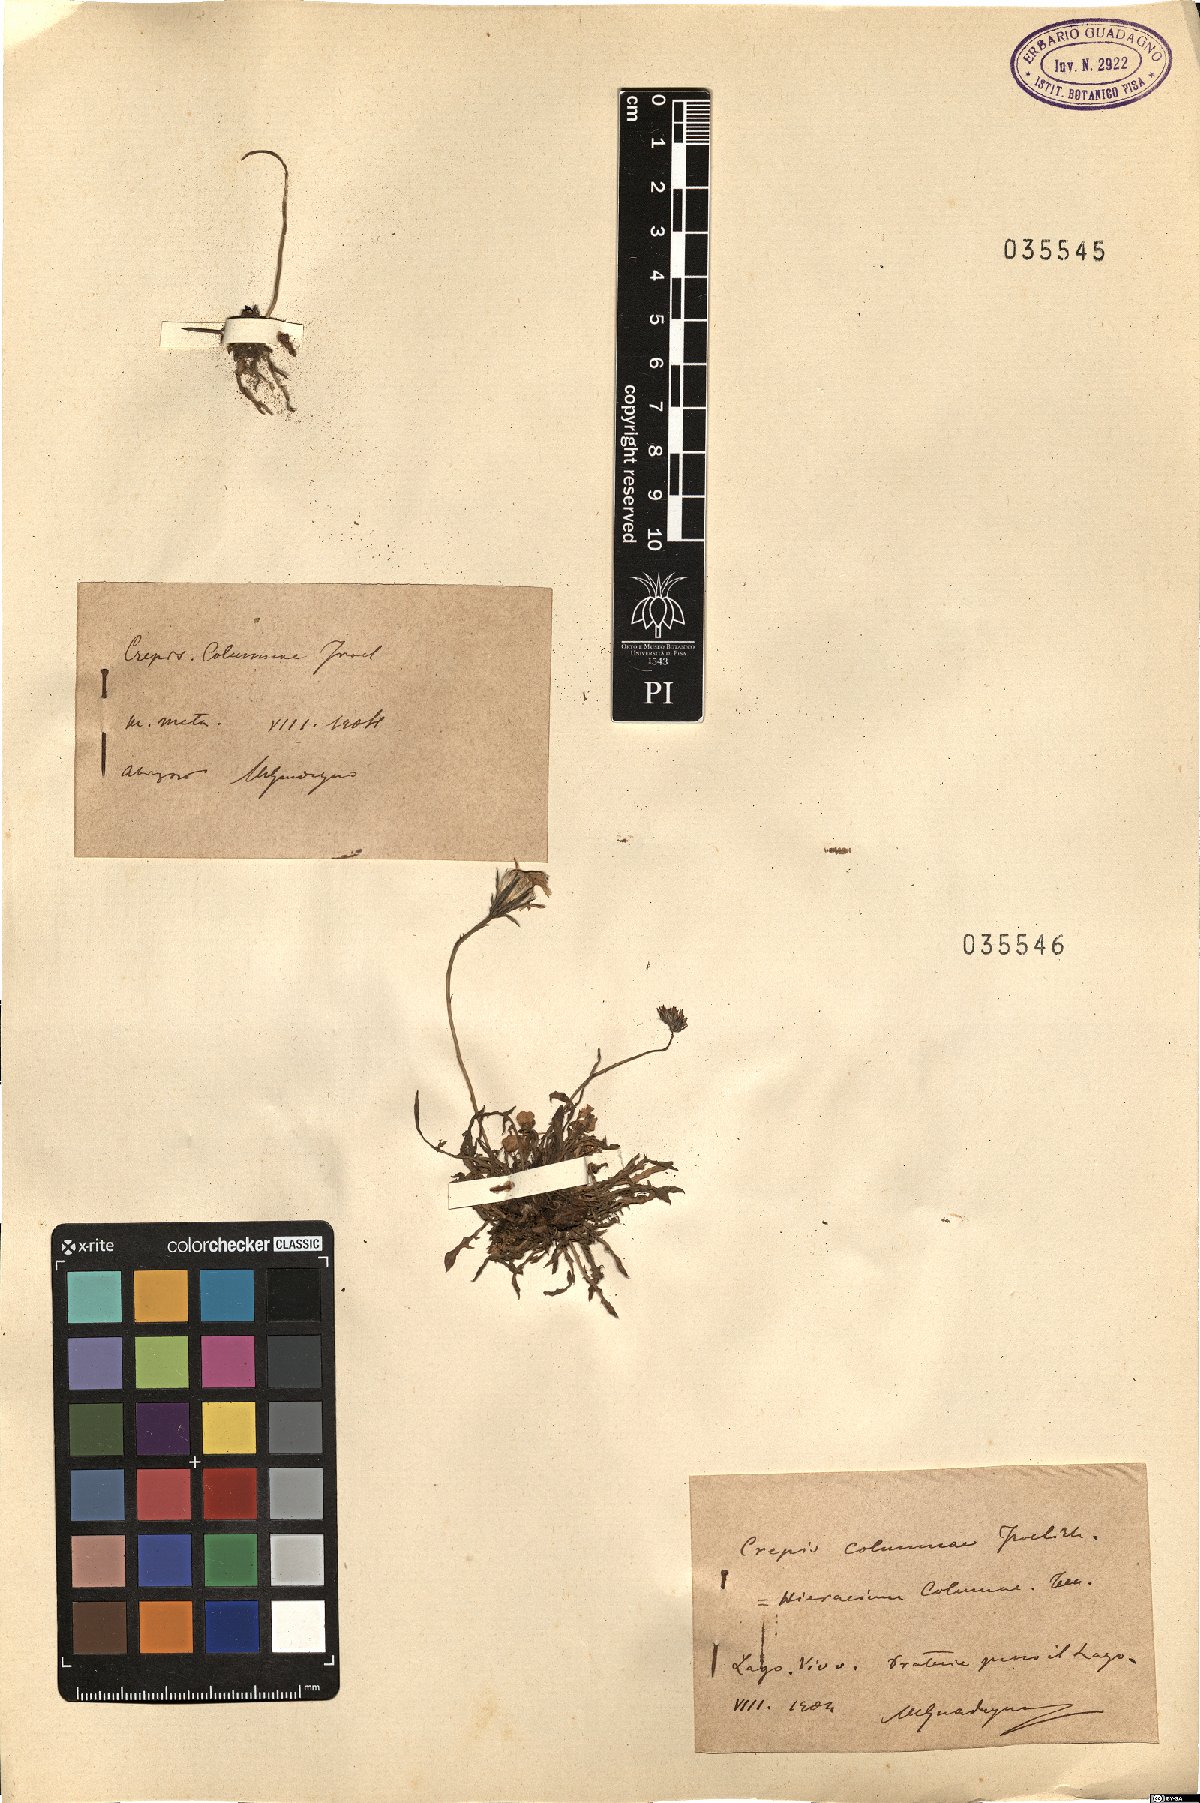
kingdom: Plantae
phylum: Tracheophyta
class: Magnoliopsida
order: Asterales
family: Asteraceae
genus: Crepis
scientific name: Crepis aurea
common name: Golden hawk's-beard
